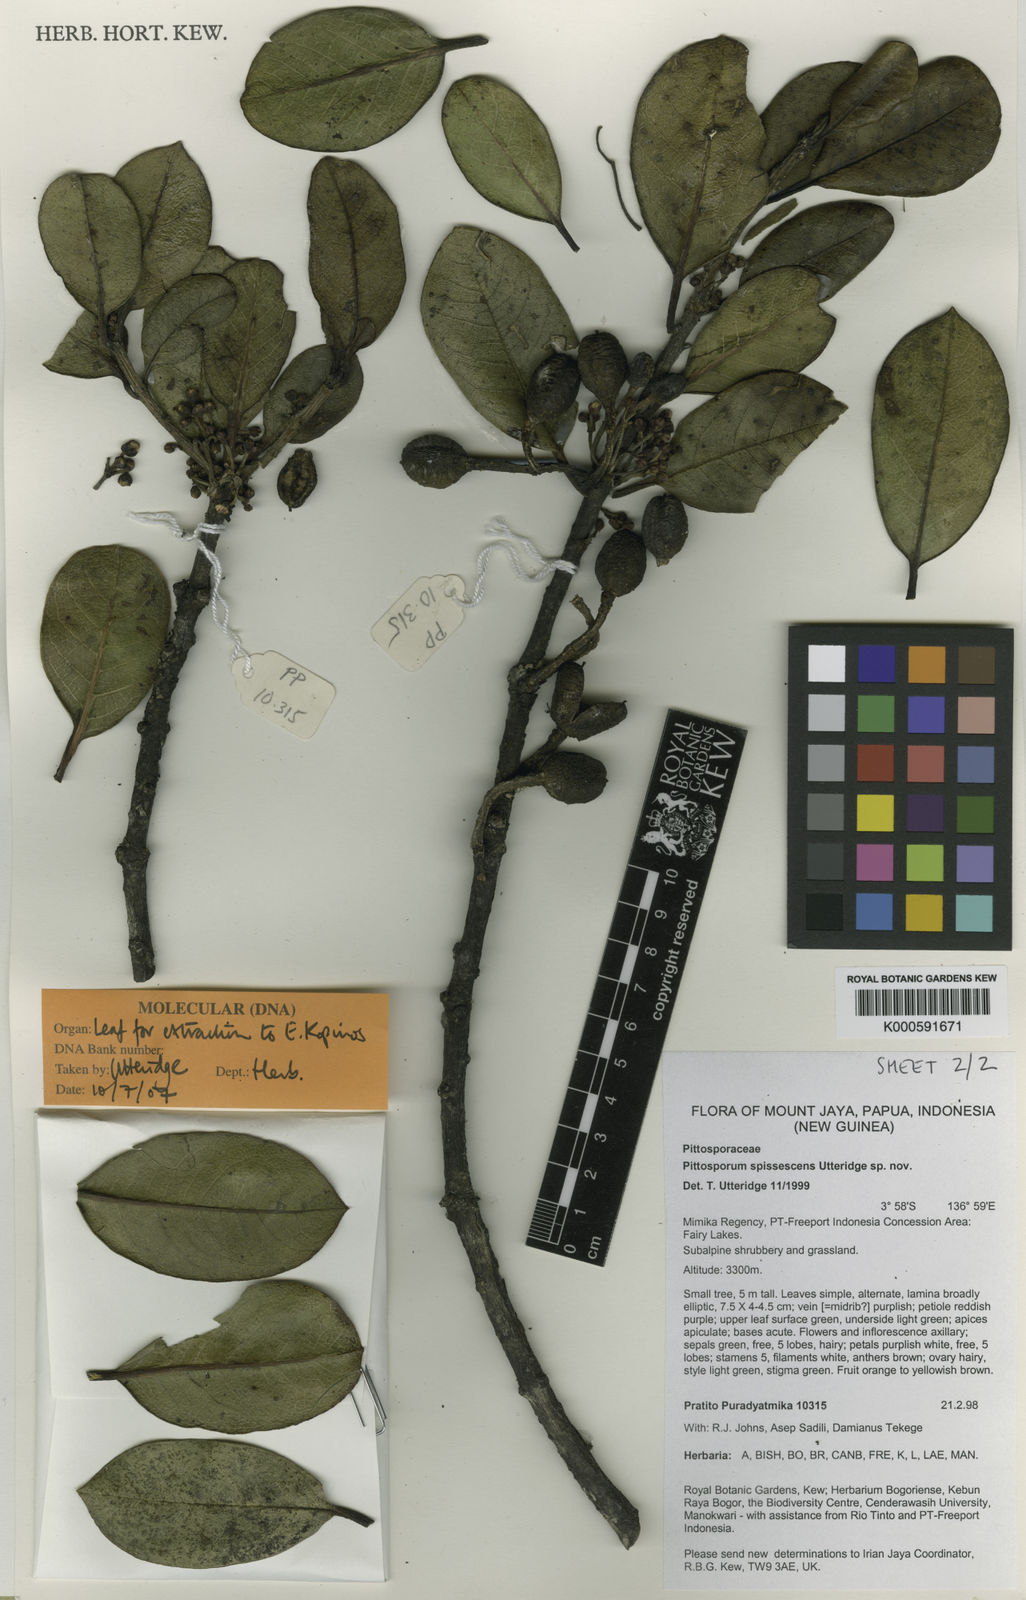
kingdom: Plantae
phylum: Tracheophyta
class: Magnoliopsida
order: Apiales
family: Pittosporaceae
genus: Pittosporum
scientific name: Pittosporum
